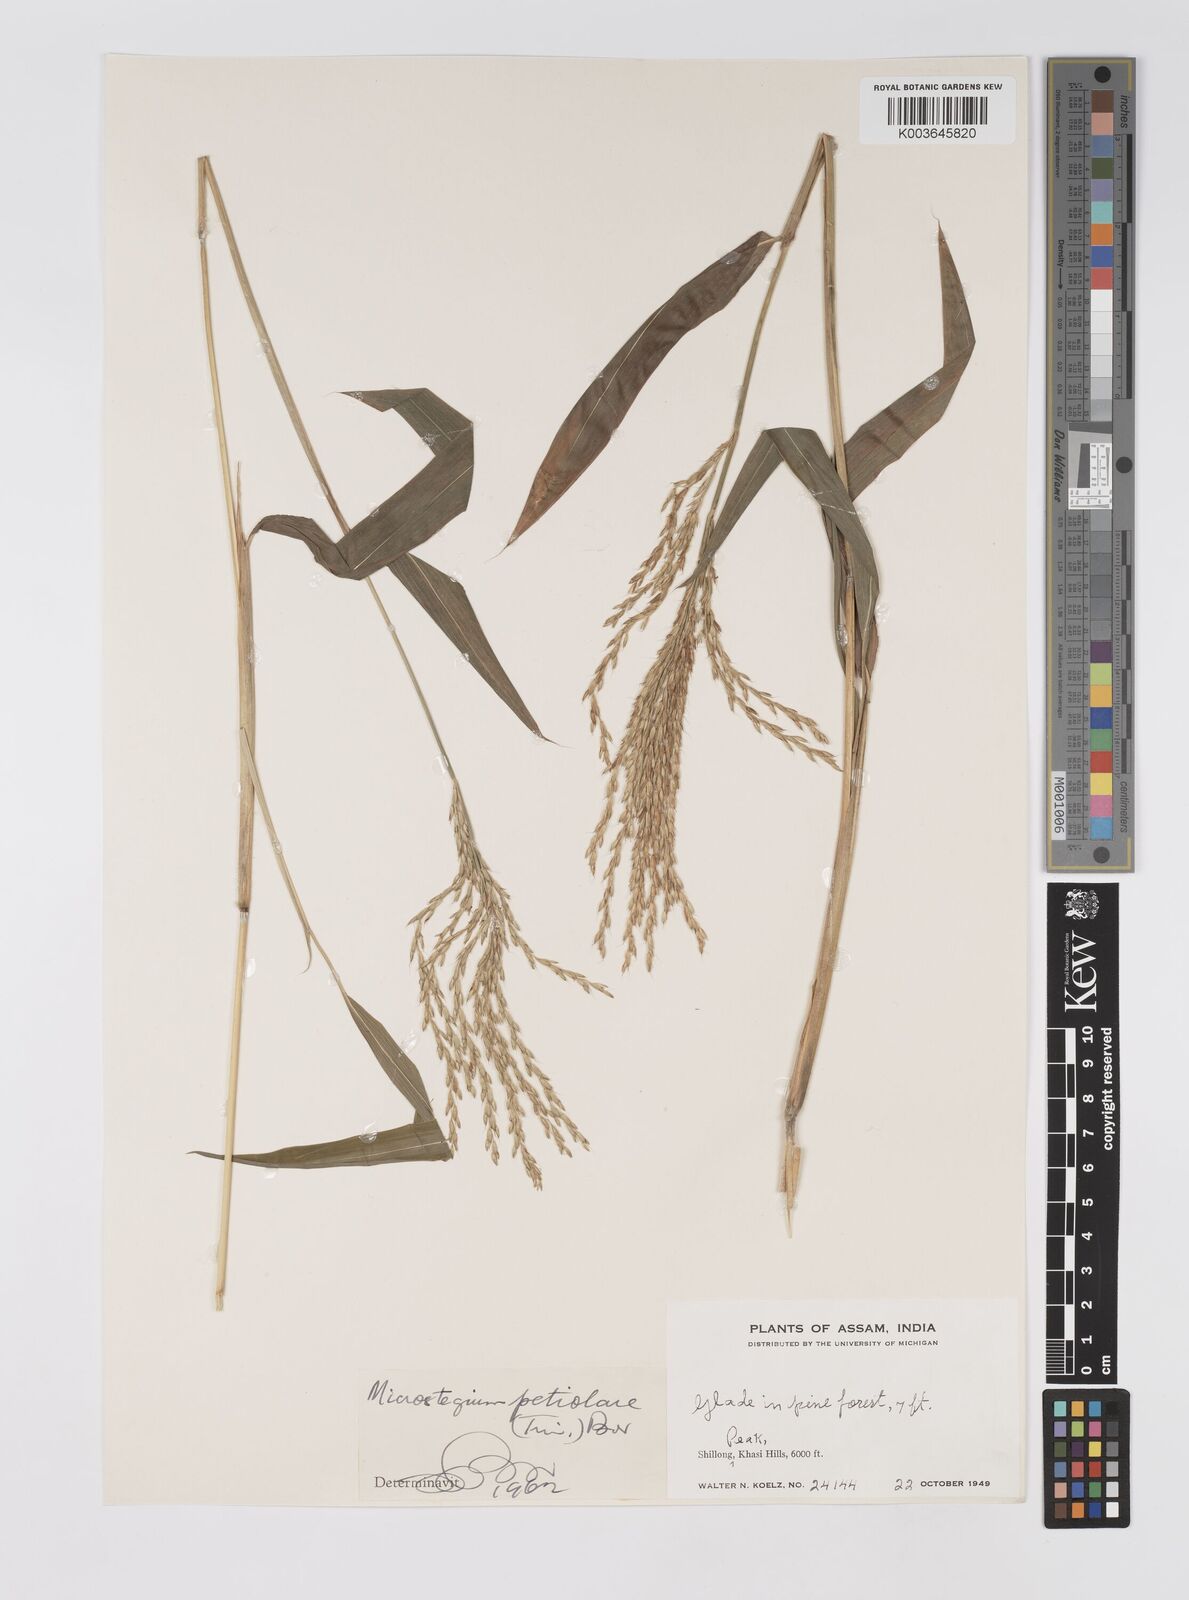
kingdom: Plantae
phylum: Tracheophyta
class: Liliopsida
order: Poales
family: Poaceae
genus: Microstegium
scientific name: Microstegium petiolare
